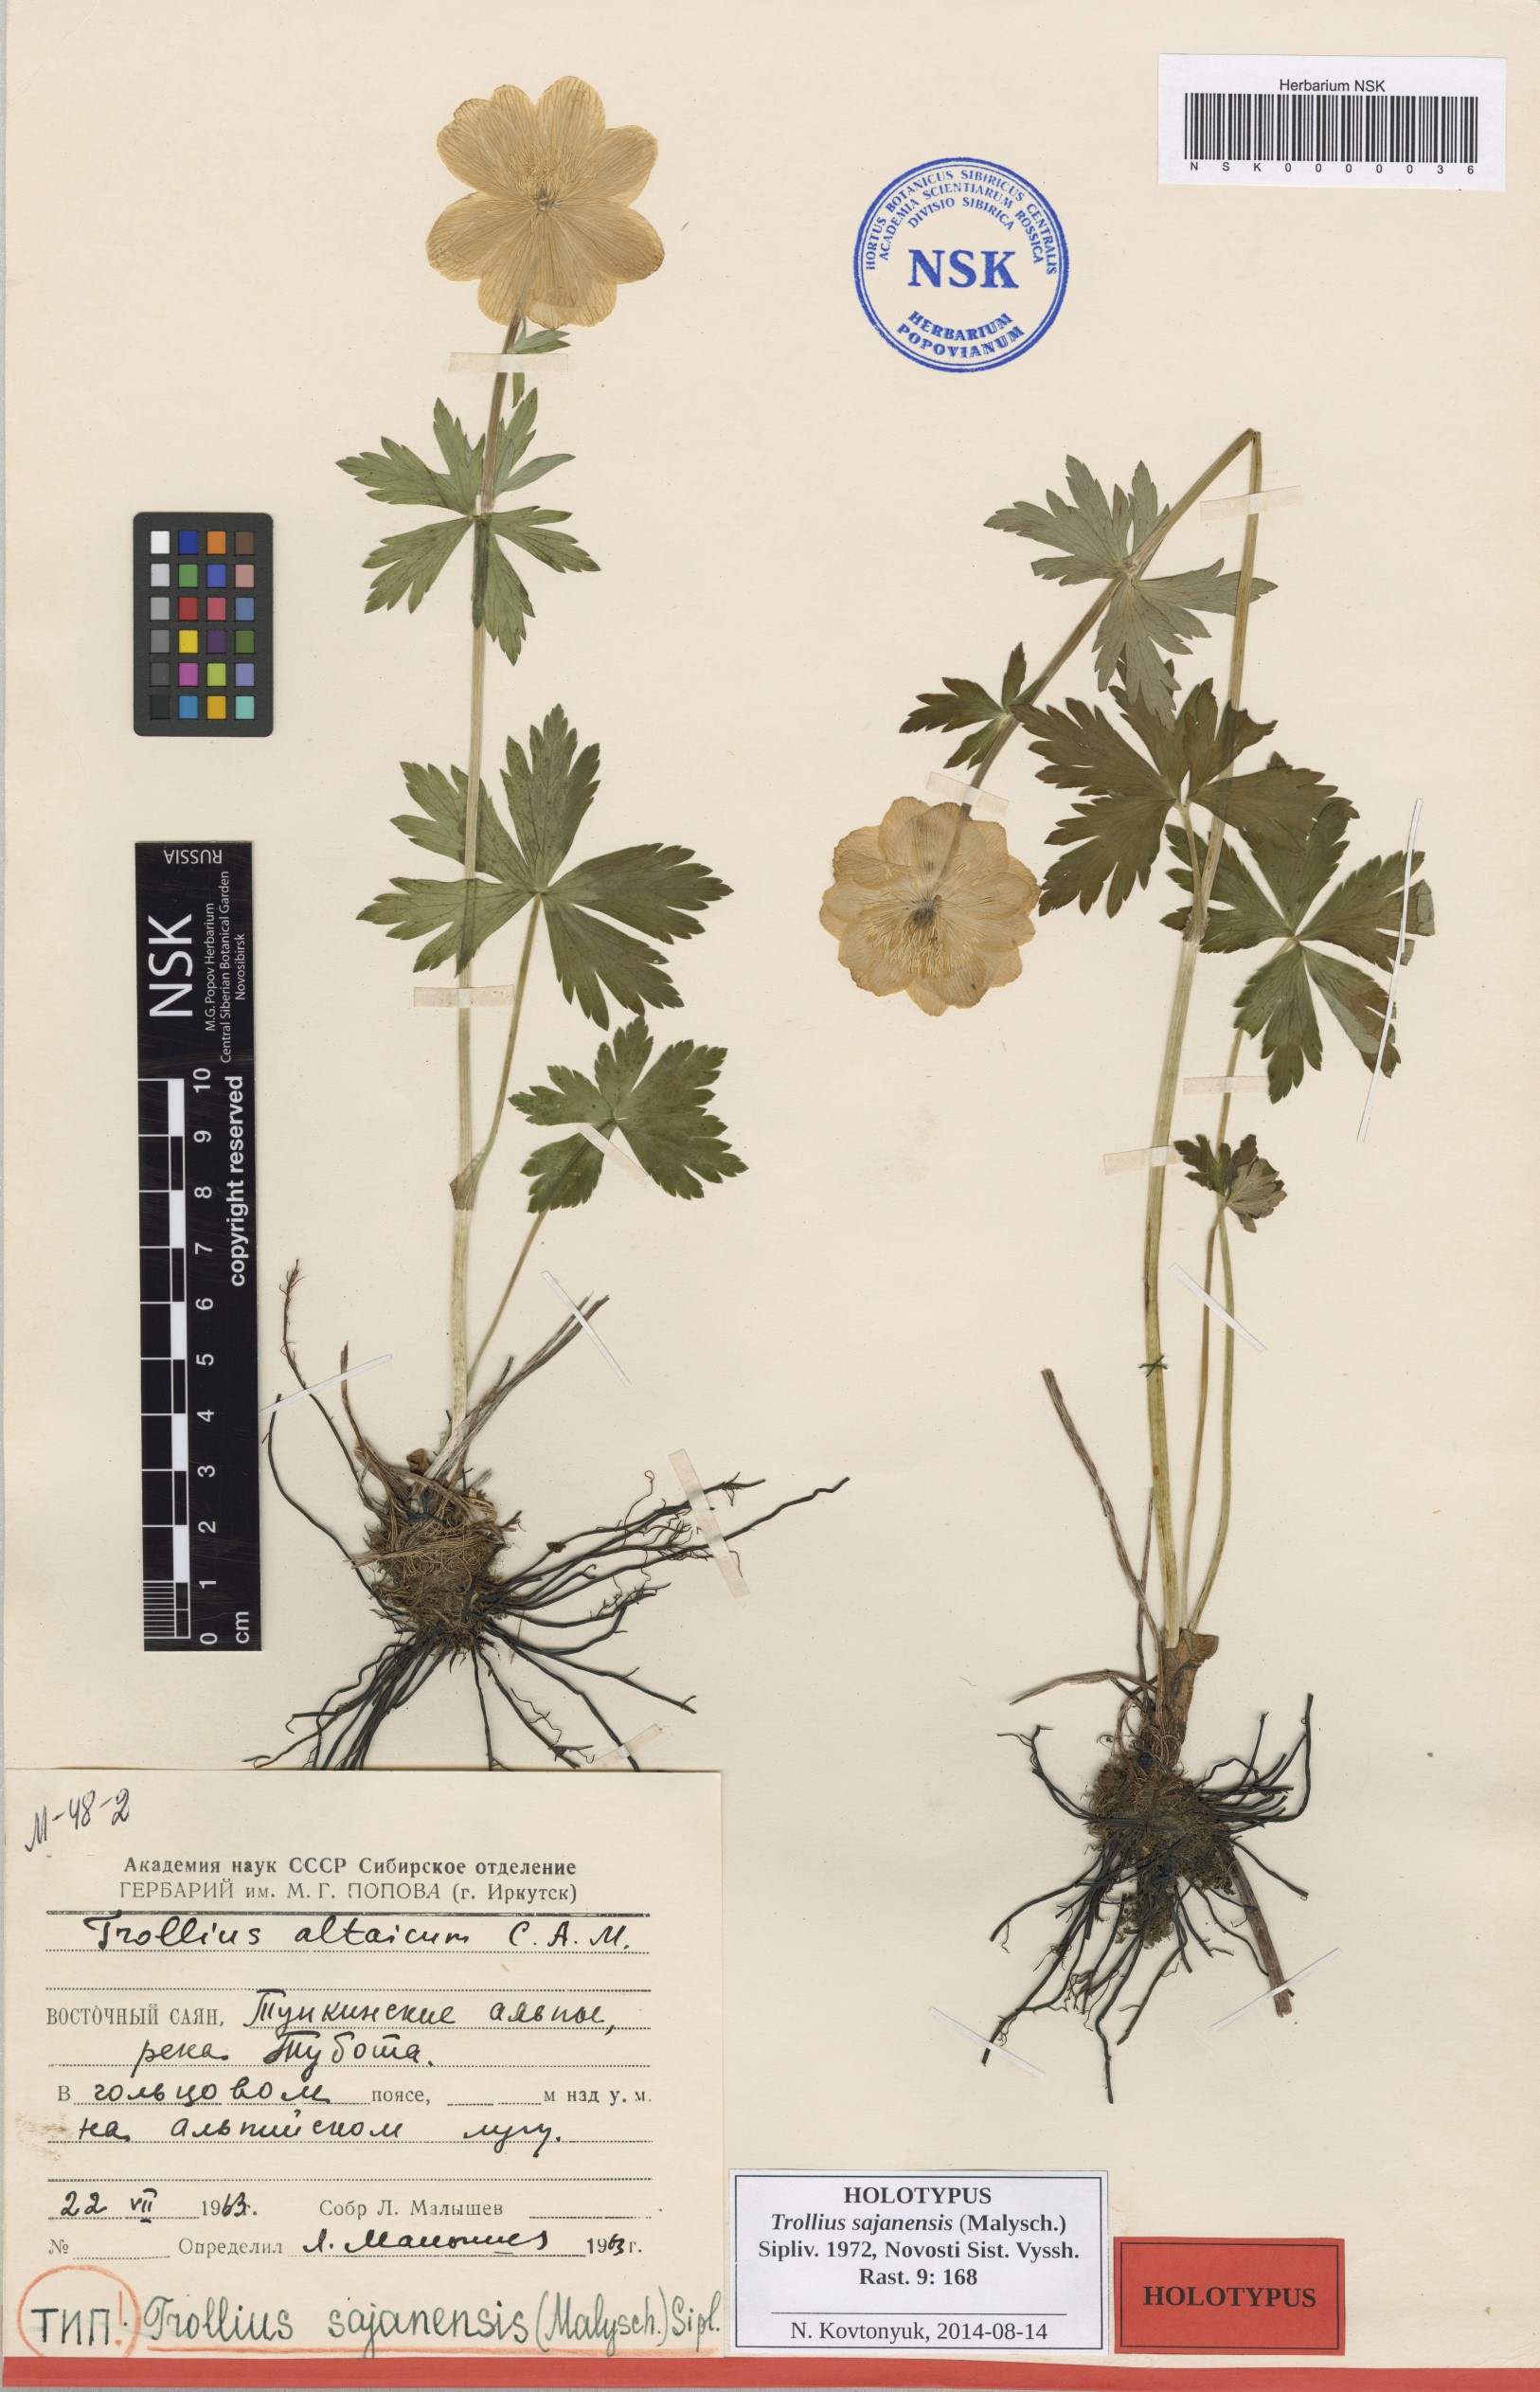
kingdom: Plantae
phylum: Tracheophyta
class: Magnoliopsida
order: Ranunculales
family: Ranunculaceae
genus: Trollius
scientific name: Trollius altaicus
